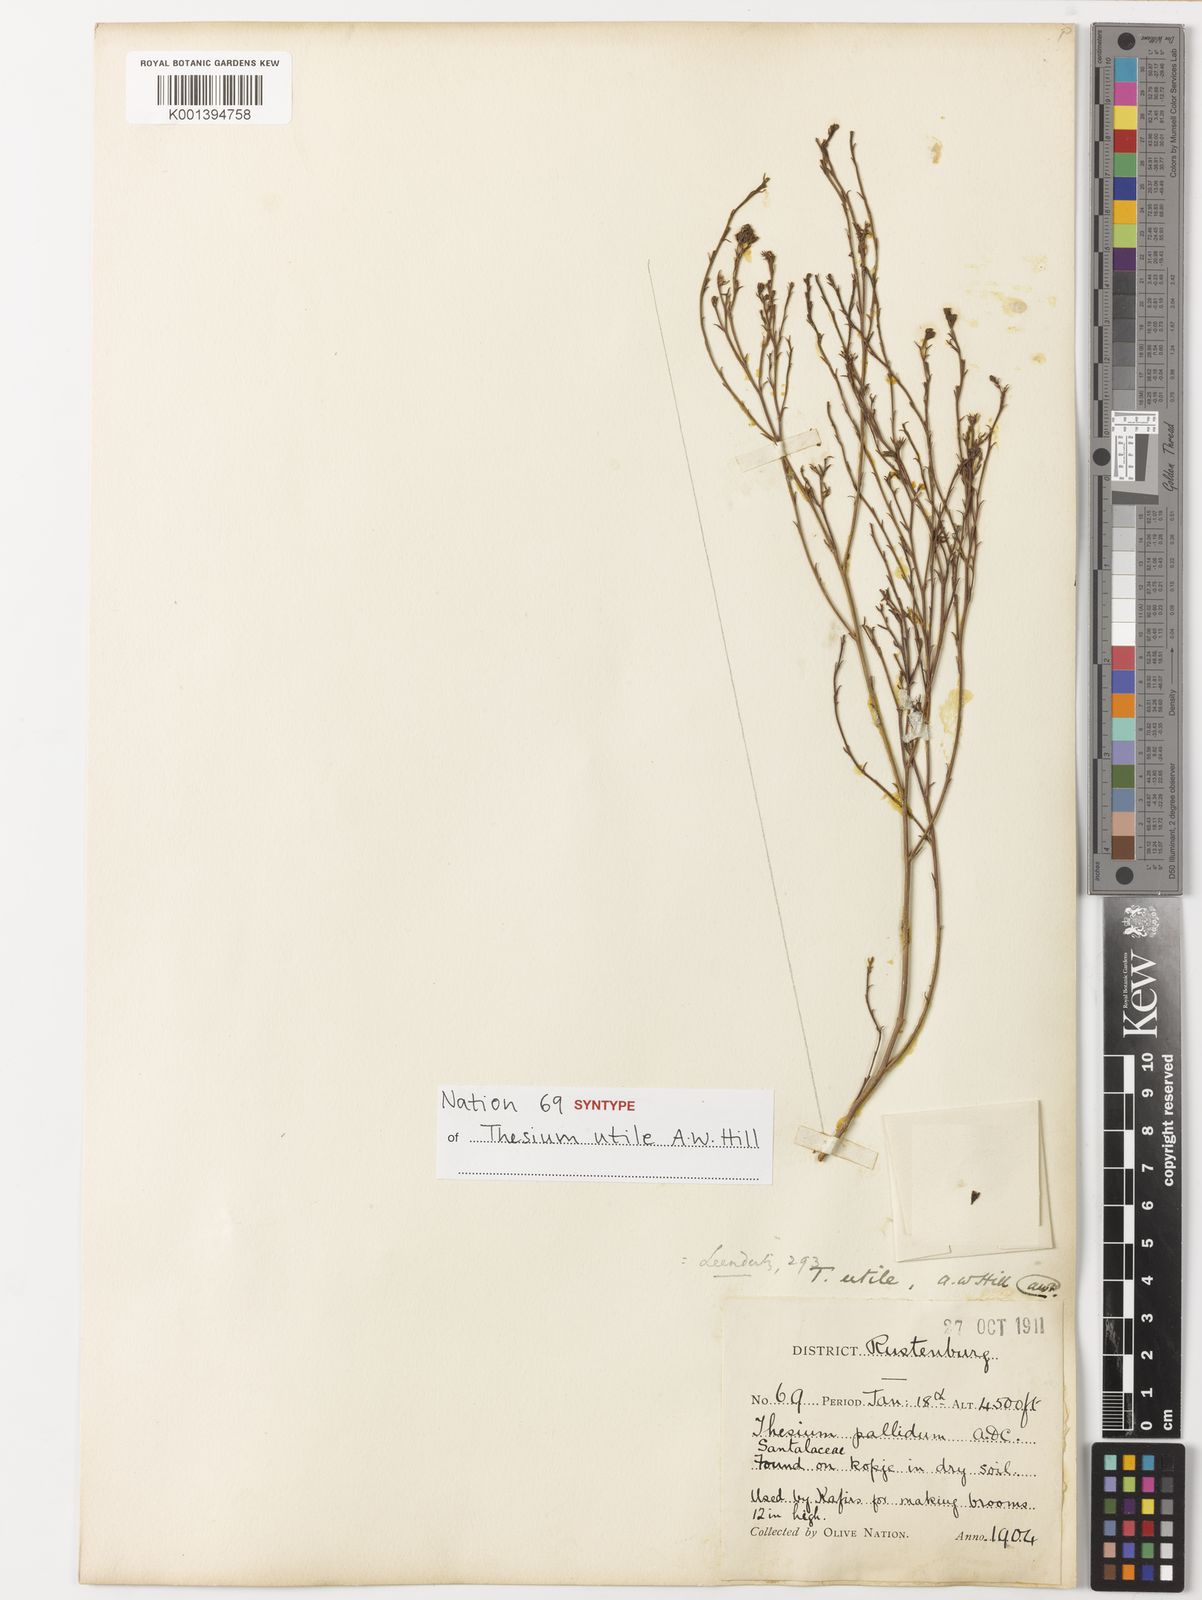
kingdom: Plantae
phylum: Tracheophyta
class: Magnoliopsida
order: Santalales
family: Thesiaceae
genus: Thesium
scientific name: Thesium utile
